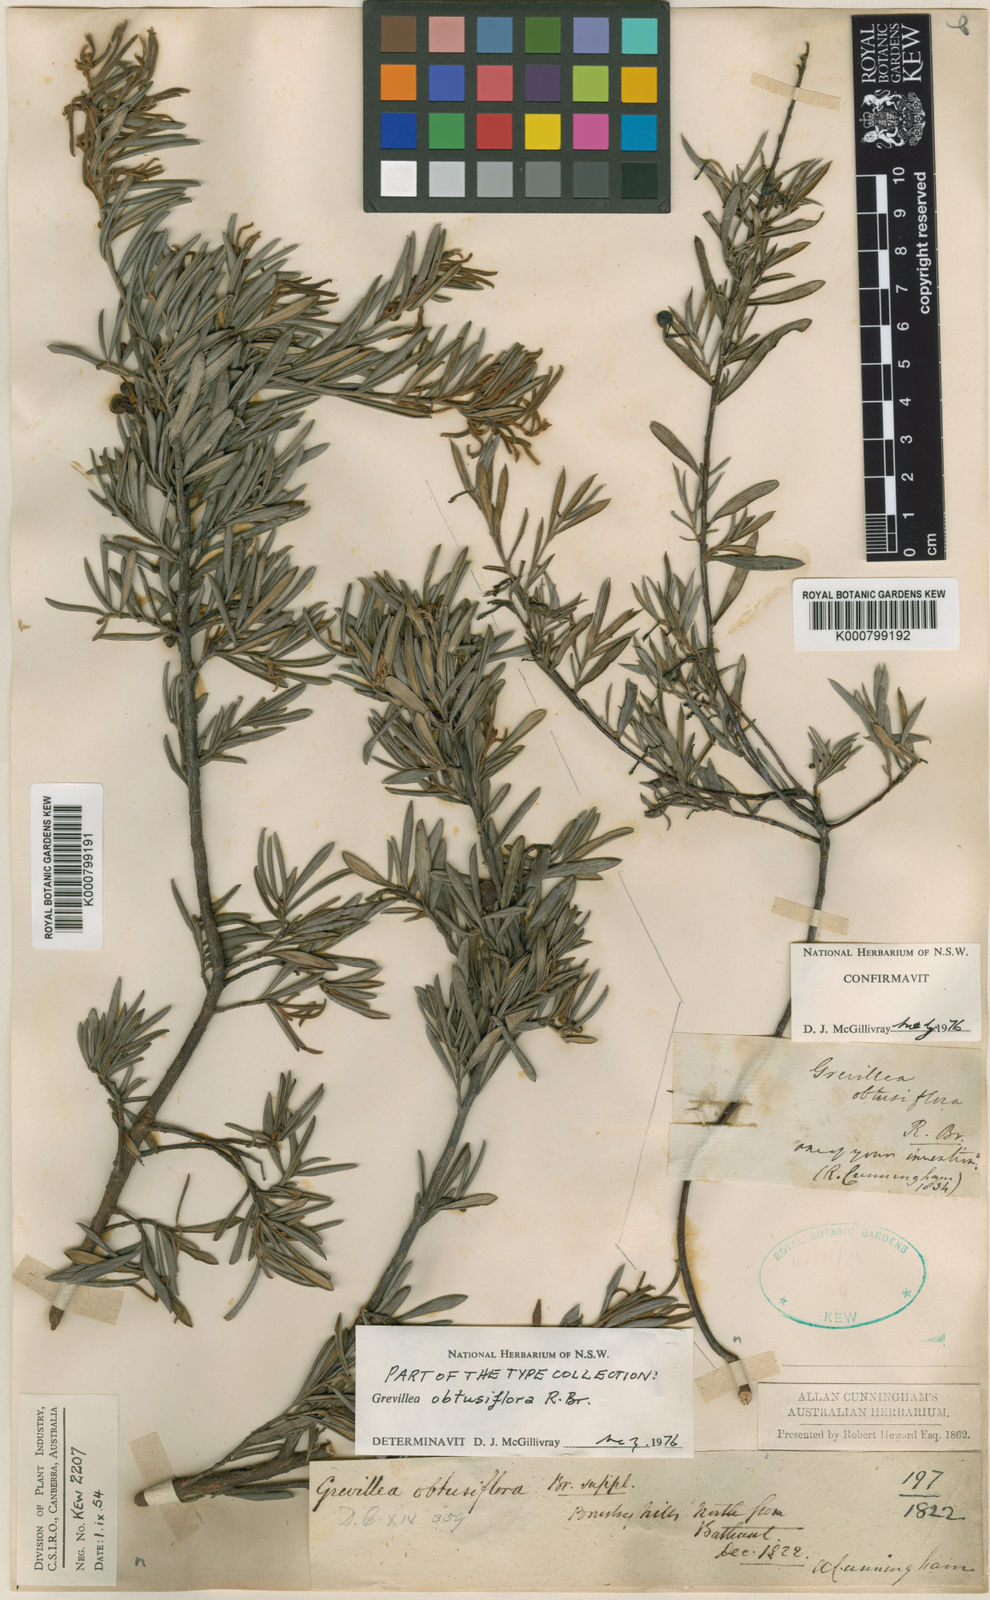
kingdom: Plantae
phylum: Tracheophyta
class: Magnoliopsida
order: Proteales
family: Proteaceae
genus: Grevillea
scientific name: Grevillea obtusiflora
